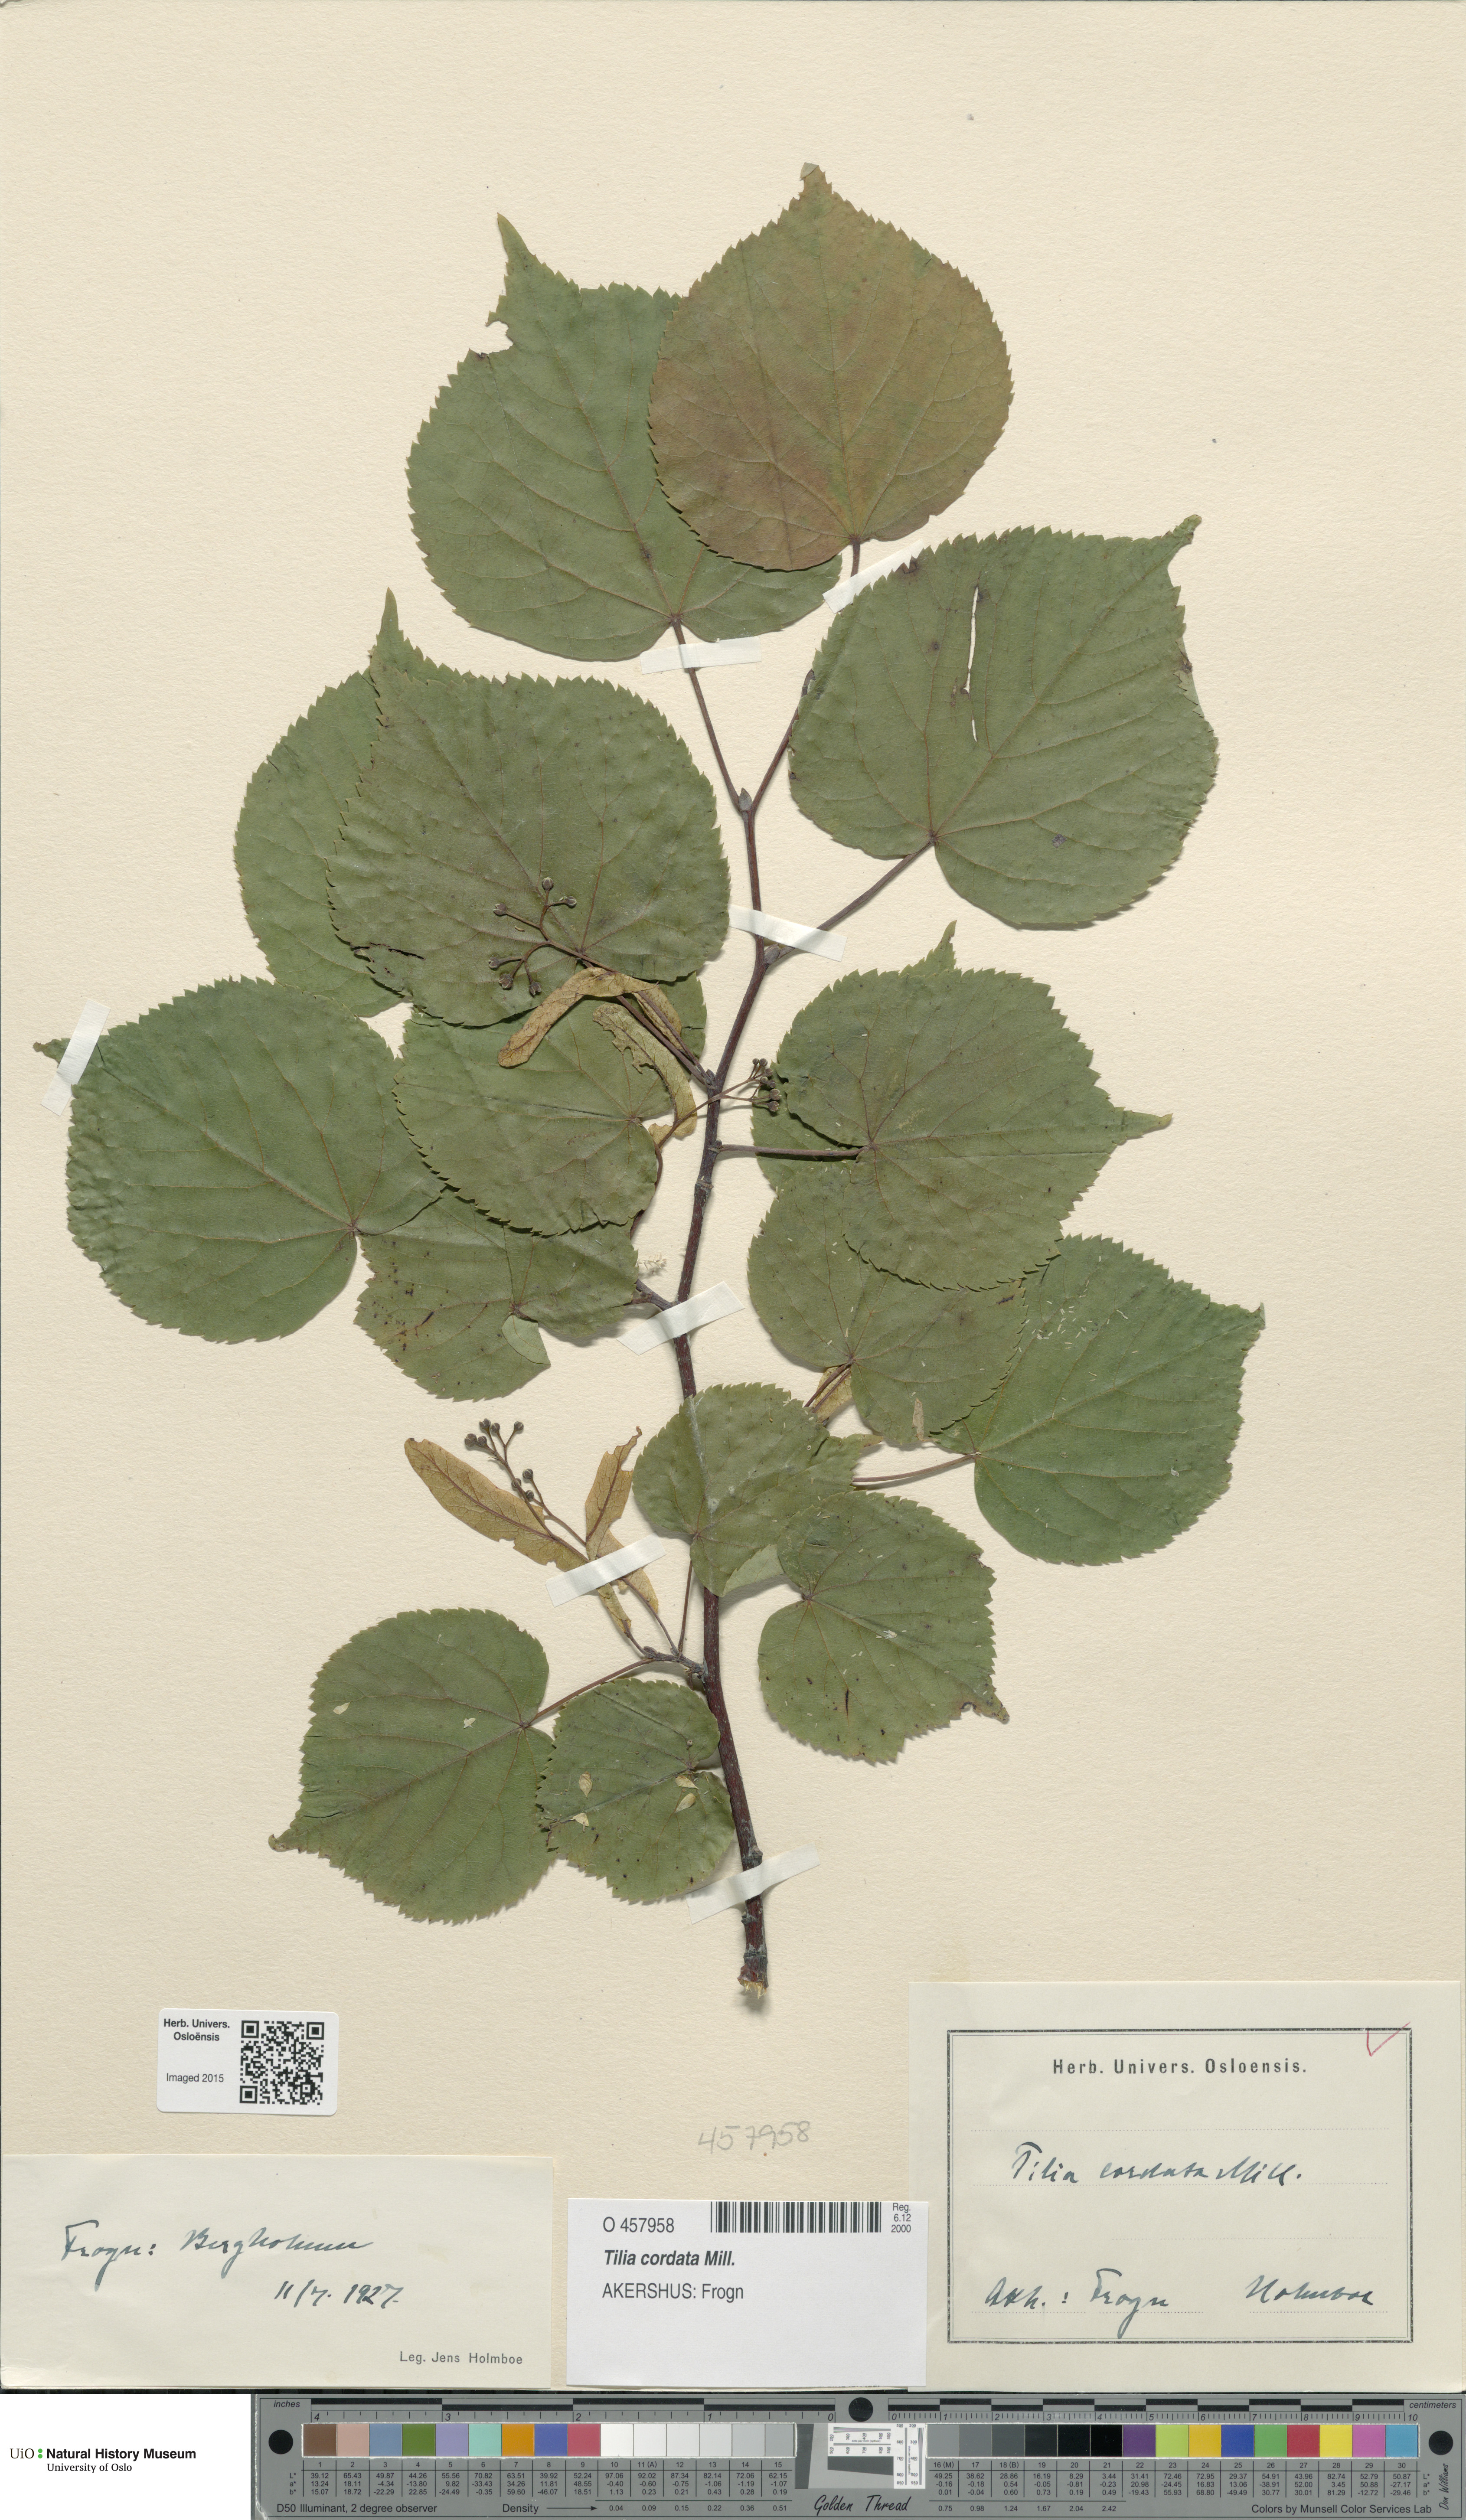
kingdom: Plantae
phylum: Tracheophyta
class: Magnoliopsida
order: Malvales
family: Malvaceae
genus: Tilia
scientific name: Tilia cordata
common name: Small-leaved lime
